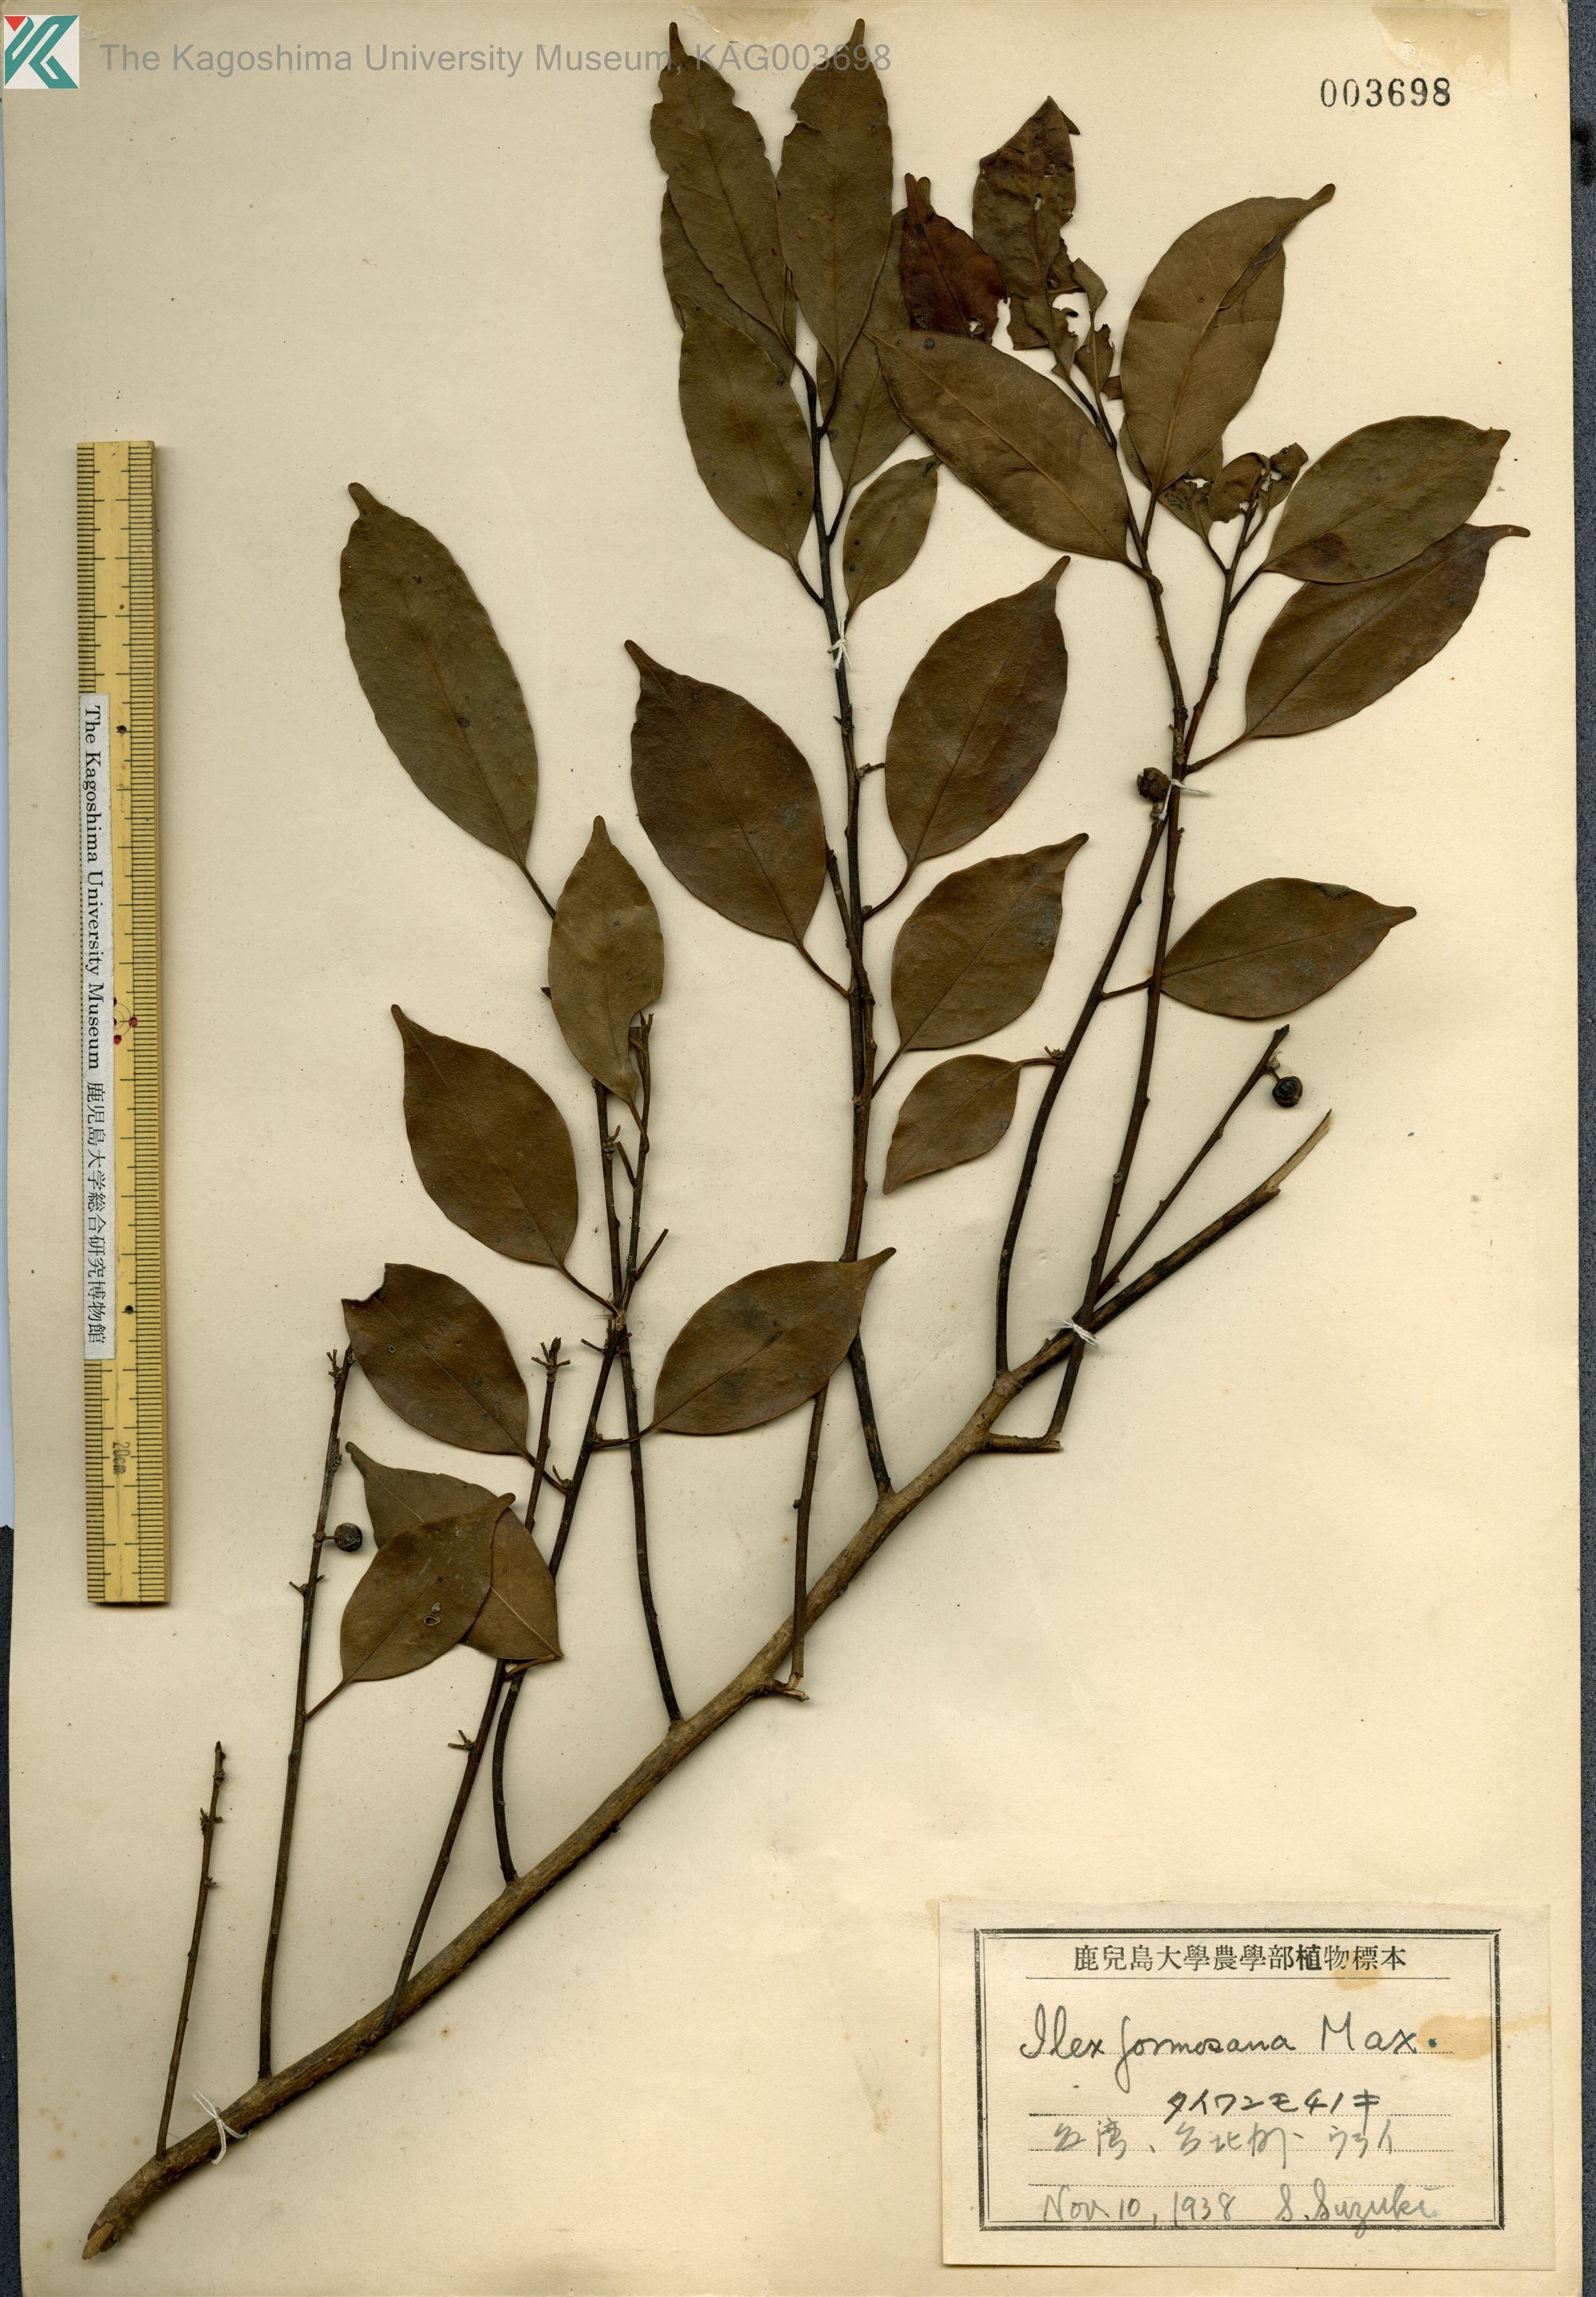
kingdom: Plantae
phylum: Tracheophyta
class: Magnoliopsida
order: Aquifoliales
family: Aquifoliaceae
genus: Ilex
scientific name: Ilex formosana
